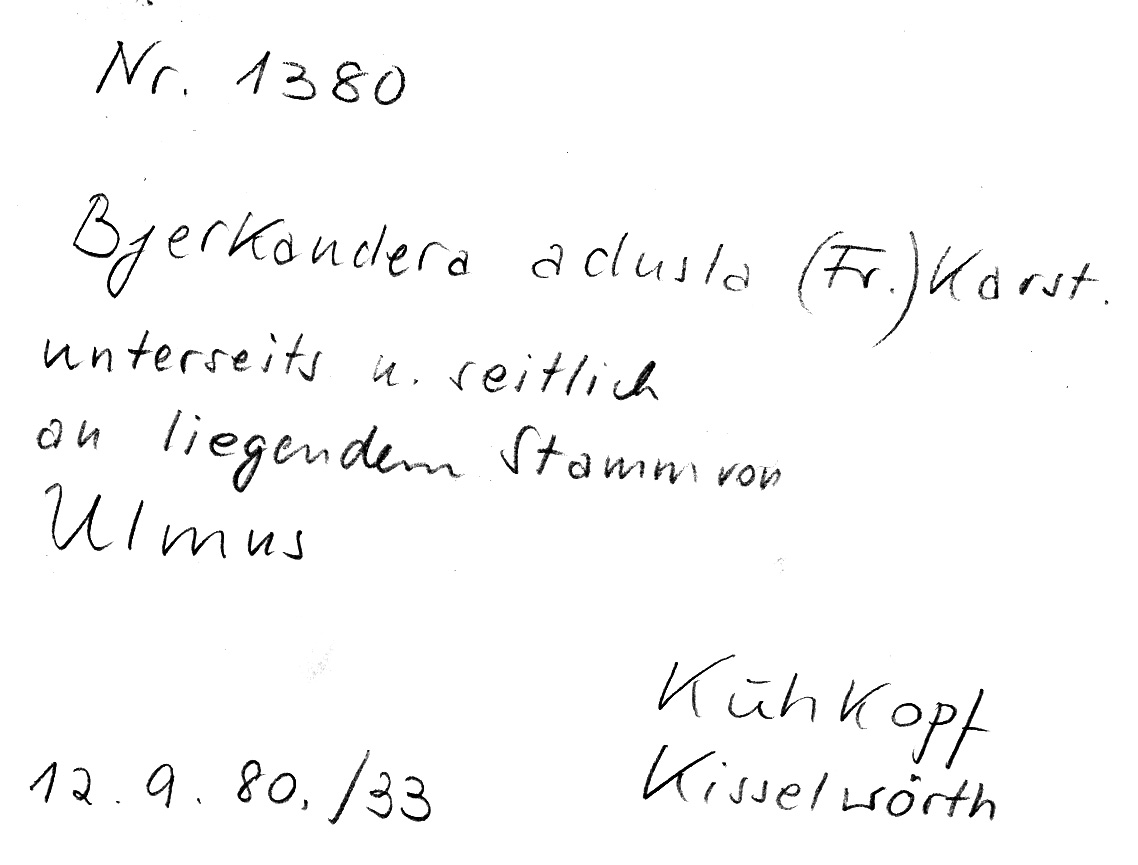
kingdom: Plantae
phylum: Tracheophyta
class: Magnoliopsida
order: Rosales
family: Ulmaceae
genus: Ulmus
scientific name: Ulmus
